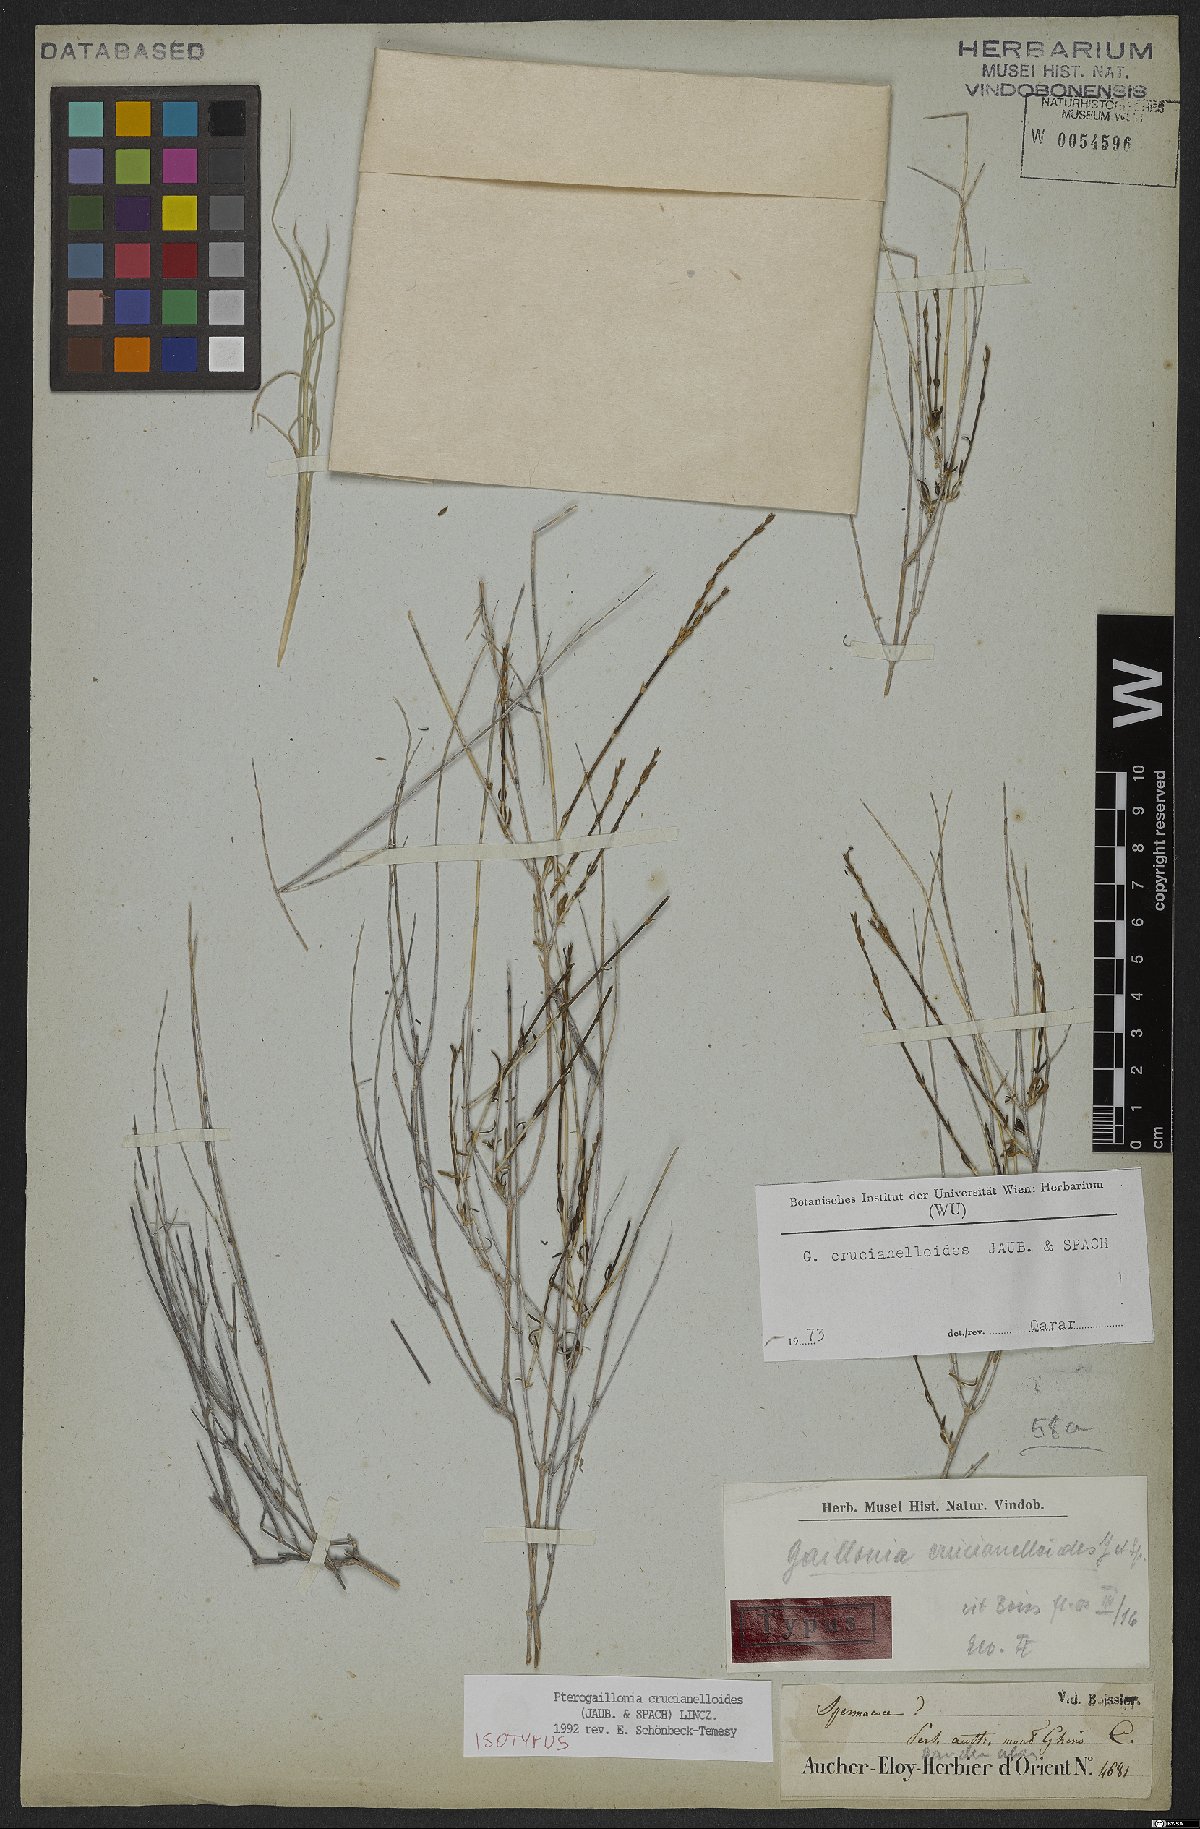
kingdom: Plantae
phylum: Tracheophyta
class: Magnoliopsida
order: Gentianales
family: Rubiaceae
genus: Plocama
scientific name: Plocama crucianelloides
